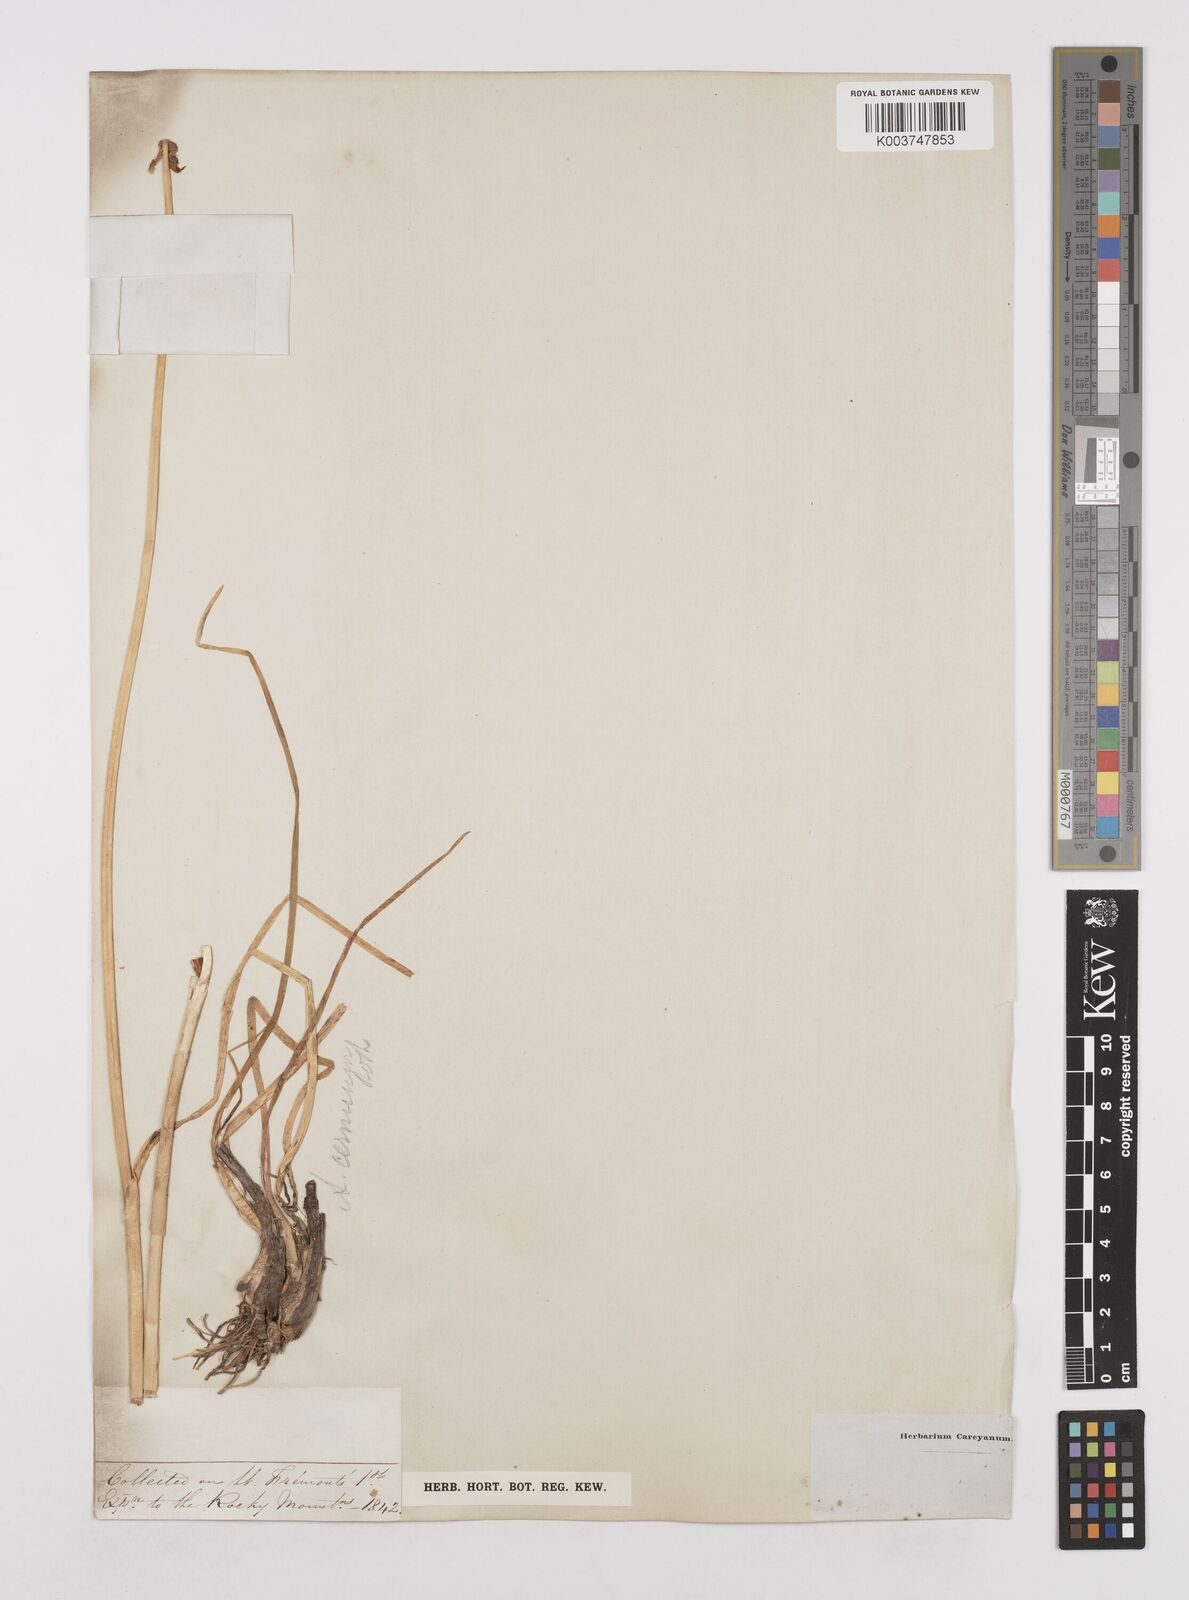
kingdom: Plantae
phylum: Tracheophyta
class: Liliopsida
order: Asparagales
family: Amaryllidaceae
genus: Allium
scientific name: Allium cernuum
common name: Nodding onion
